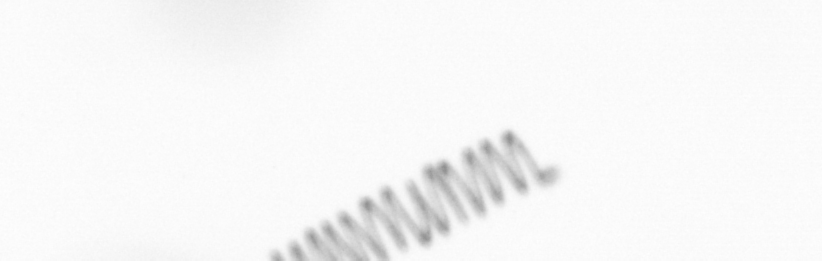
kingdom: Chromista
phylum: Ochrophyta
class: Bacillariophyceae
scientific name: Bacillariophyceae
